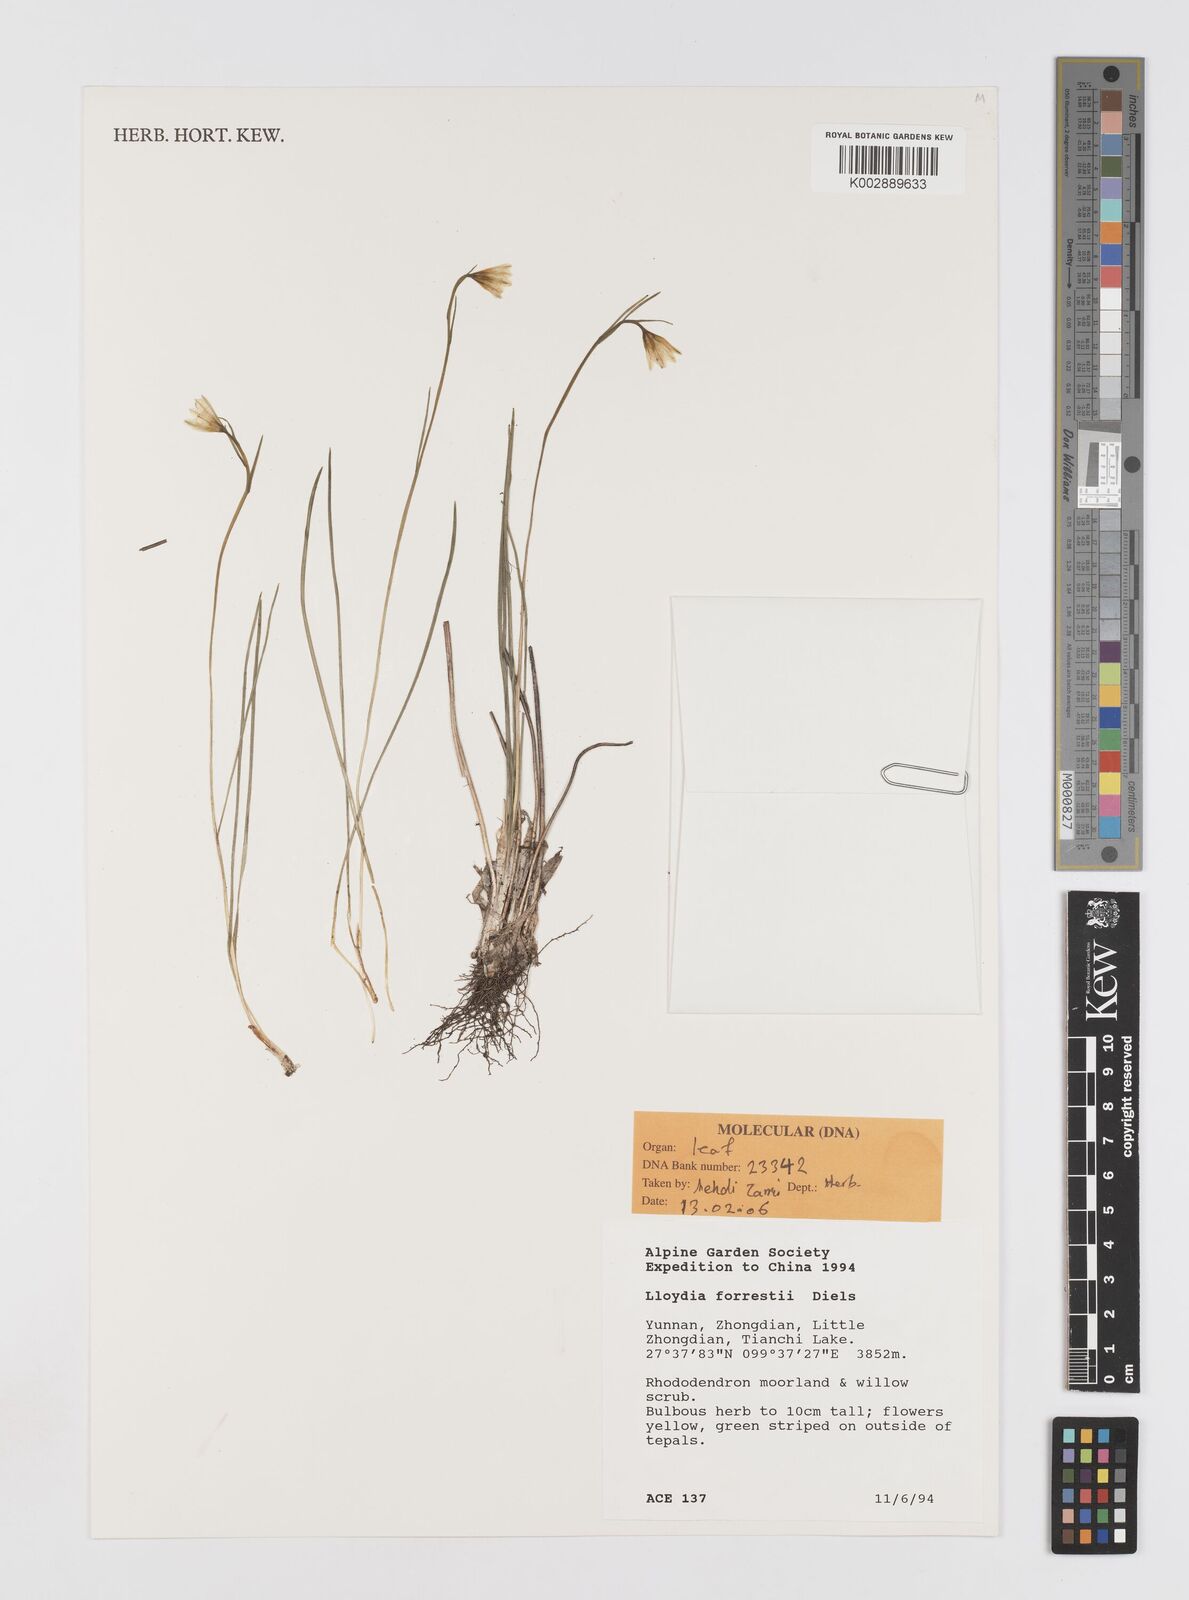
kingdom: Plantae
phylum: Tracheophyta
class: Liliopsida
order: Liliales
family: Liliaceae
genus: Gagea
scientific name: Gagea
